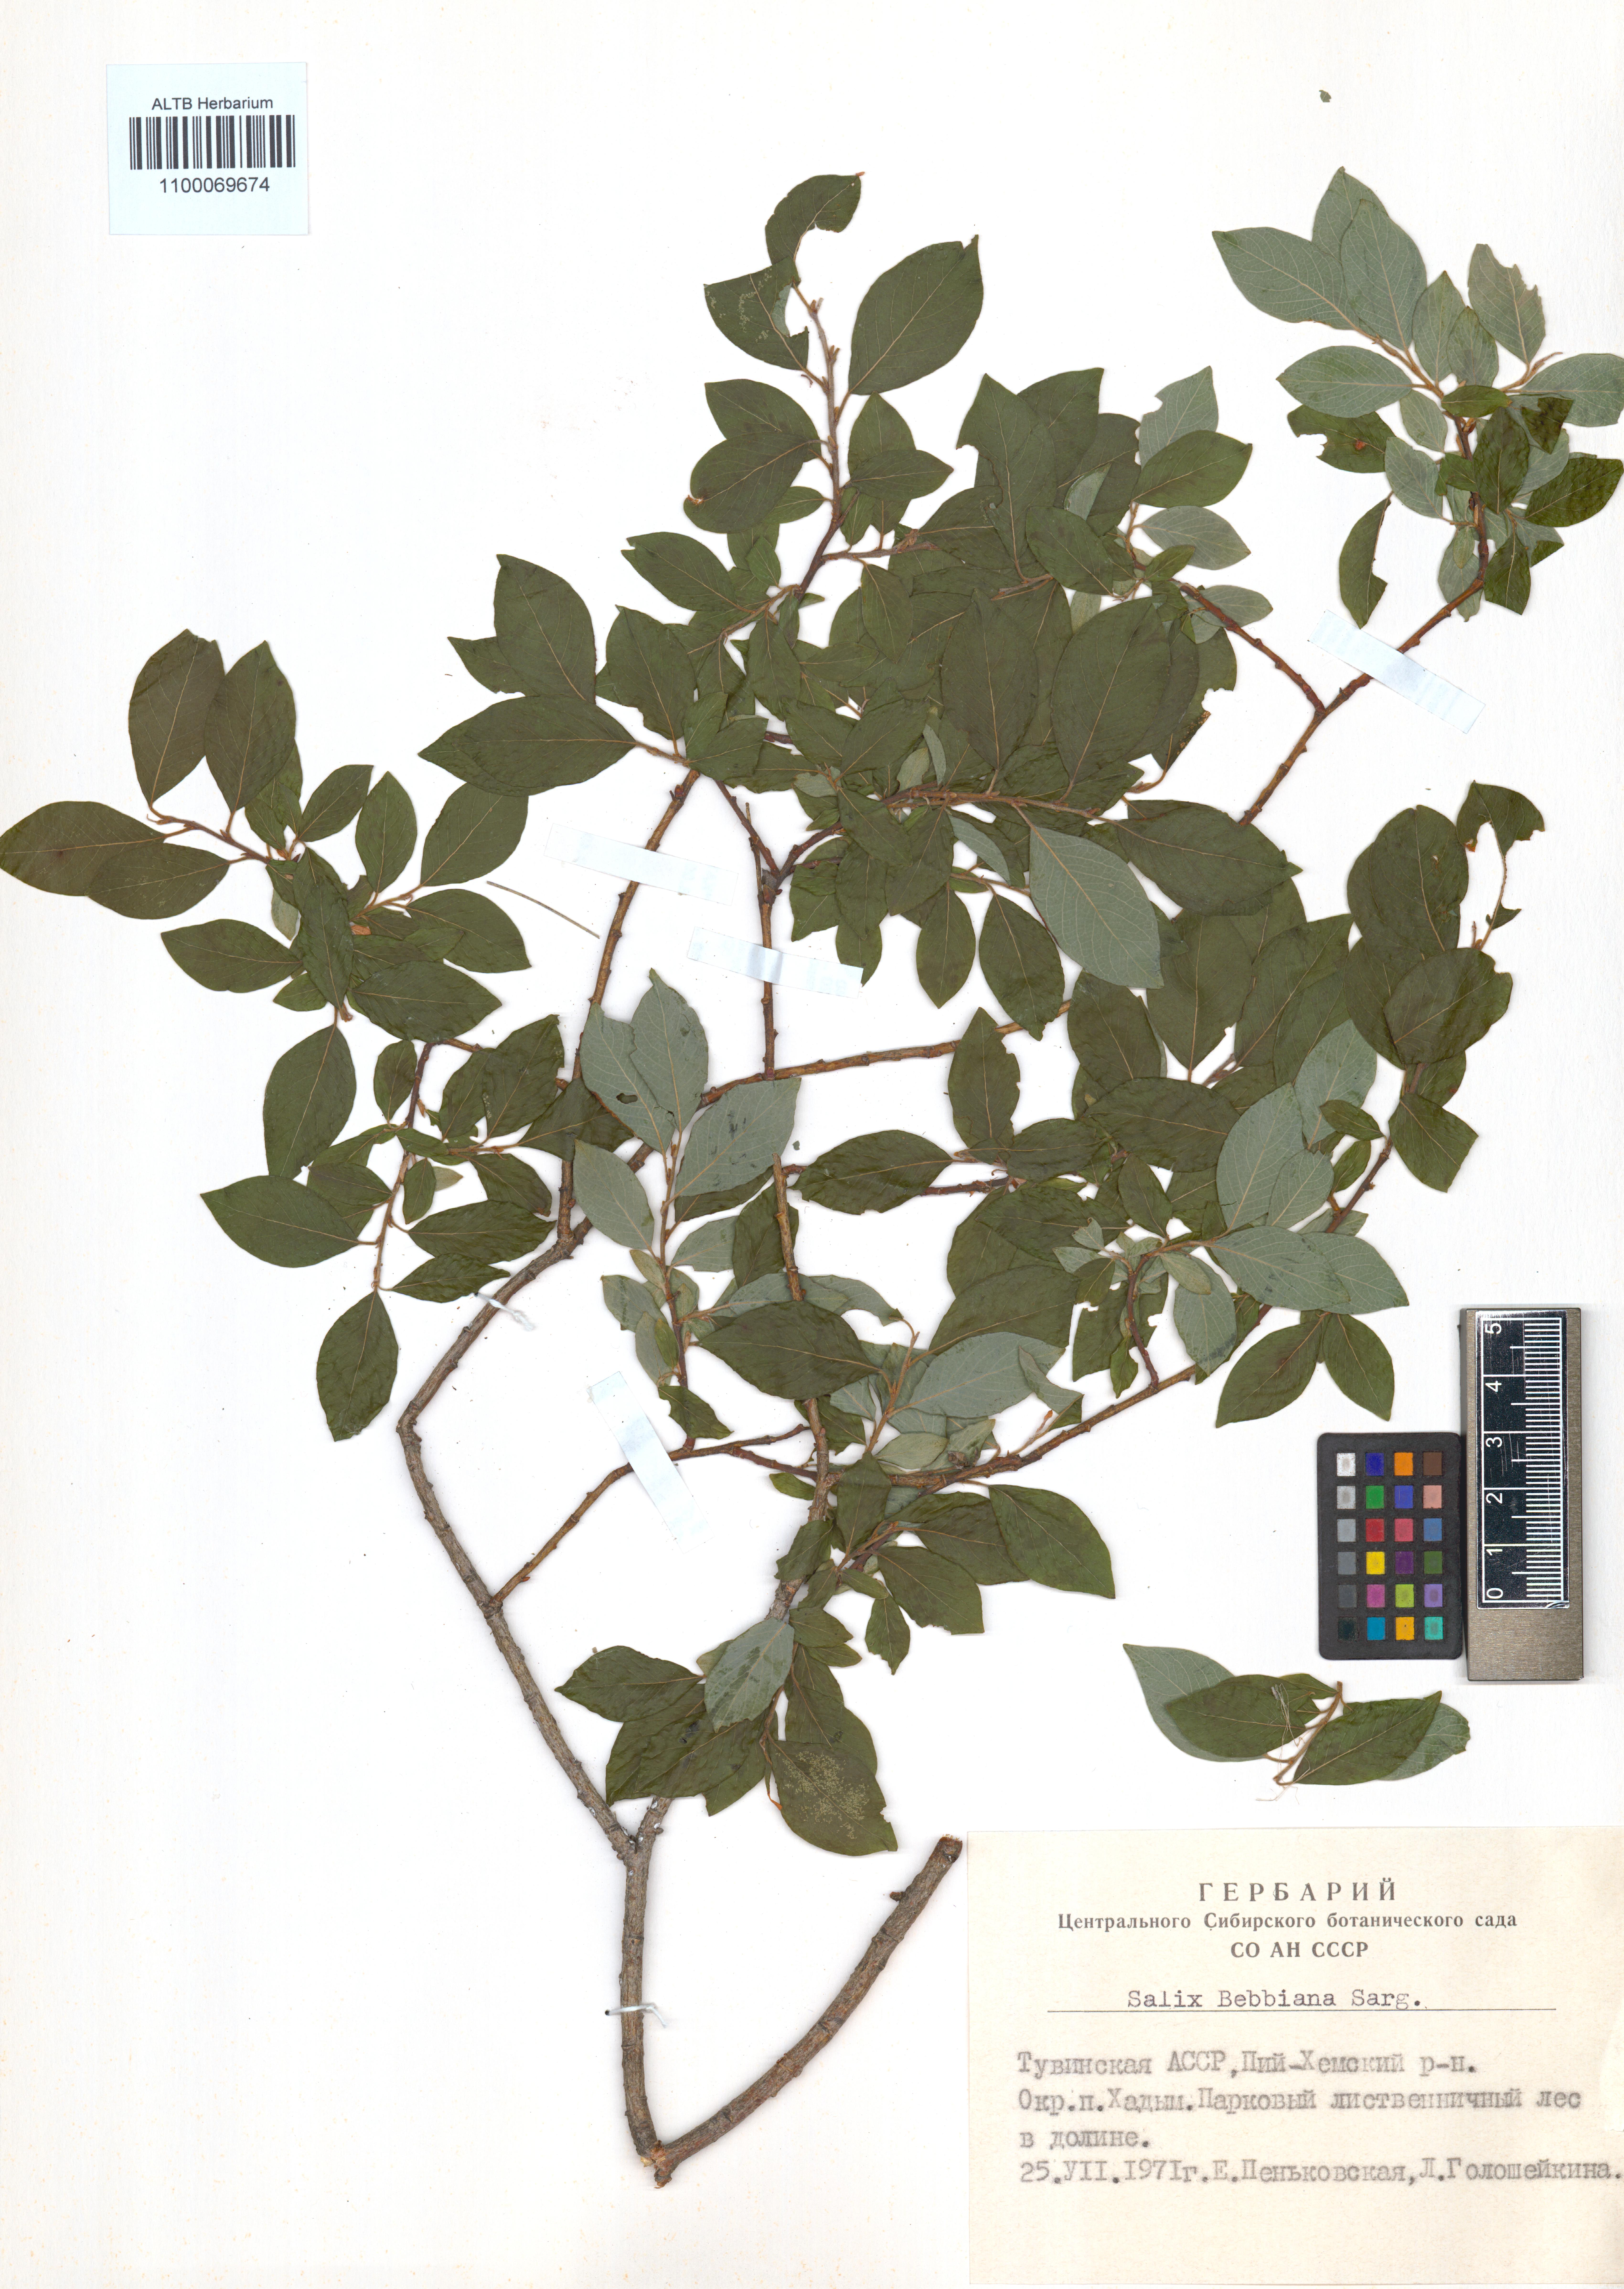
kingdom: Plantae
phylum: Tracheophyta
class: Magnoliopsida
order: Malpighiales
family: Salicaceae
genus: Salix
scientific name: Salix bebbiana
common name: Bebb's willow
